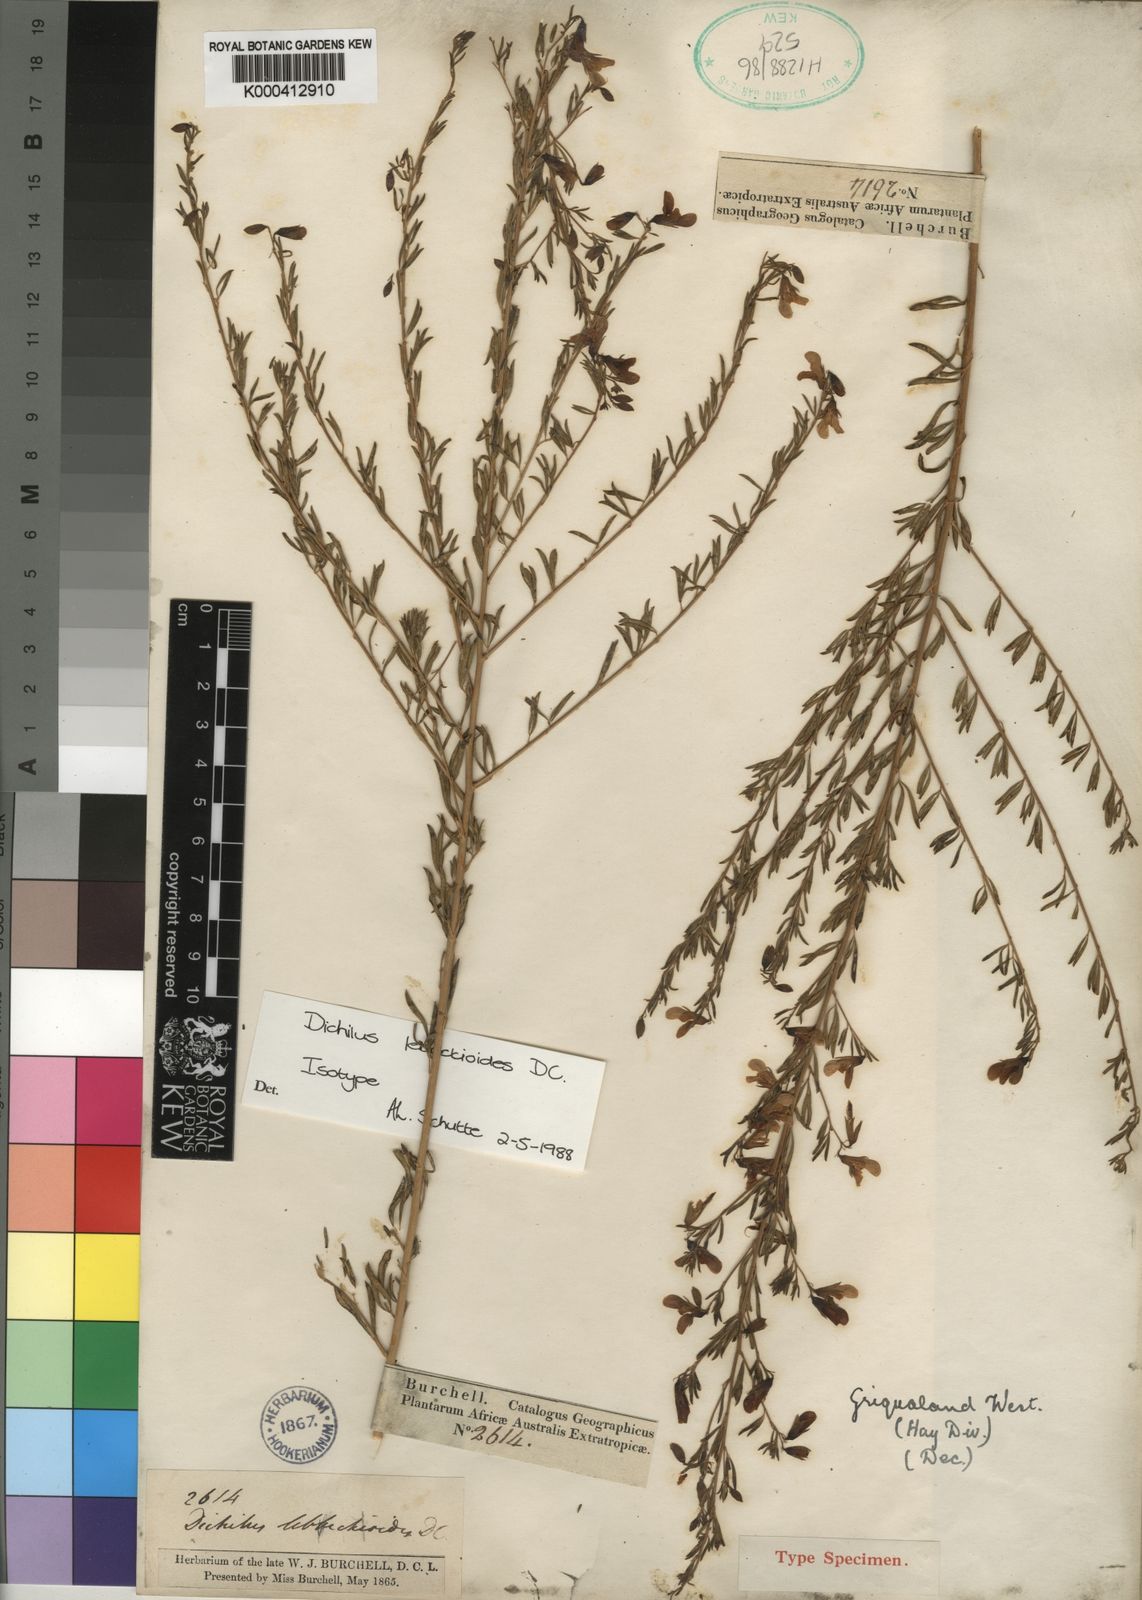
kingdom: Plantae
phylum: Tracheophyta
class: Magnoliopsida
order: Fabales
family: Fabaceae
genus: Dichilus
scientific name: Dichilus lebeckioides
